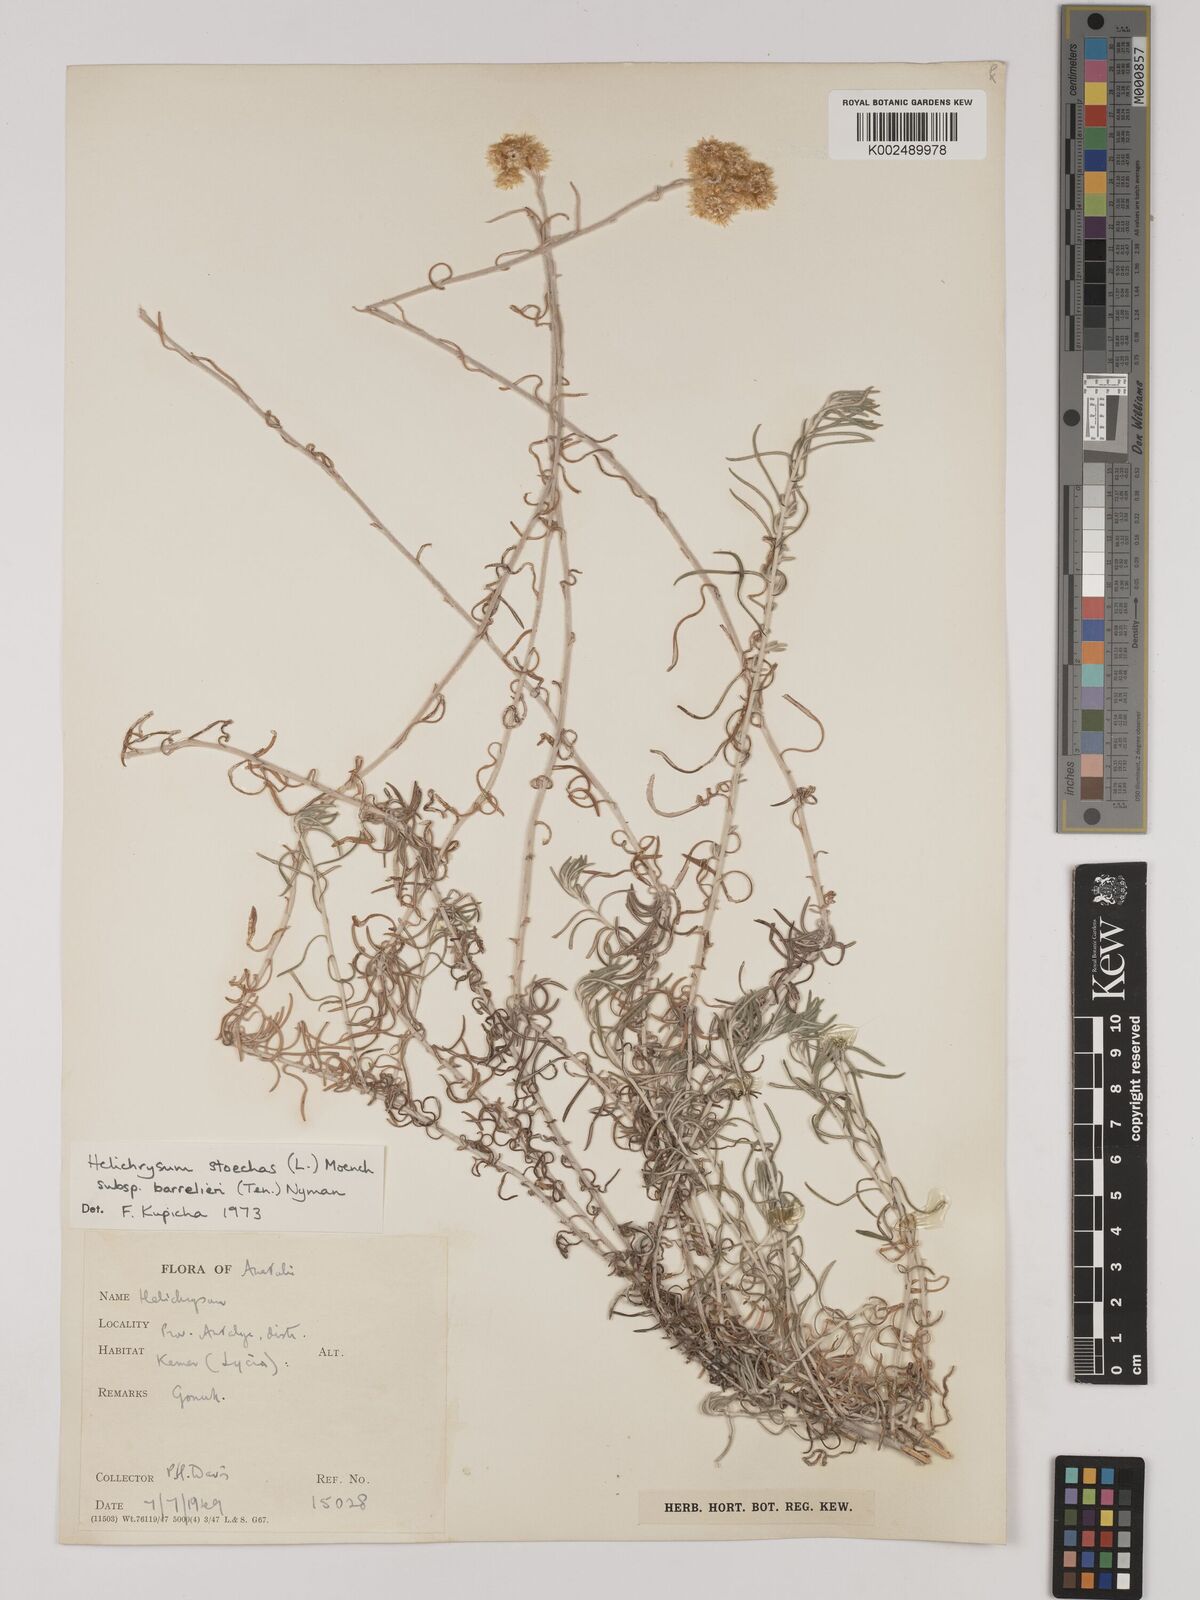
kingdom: Plantae
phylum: Tracheophyta
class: Magnoliopsida
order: Asterales
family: Asteraceae
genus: Helichrysum
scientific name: Helichrysum stoechas
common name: Goldilocks
